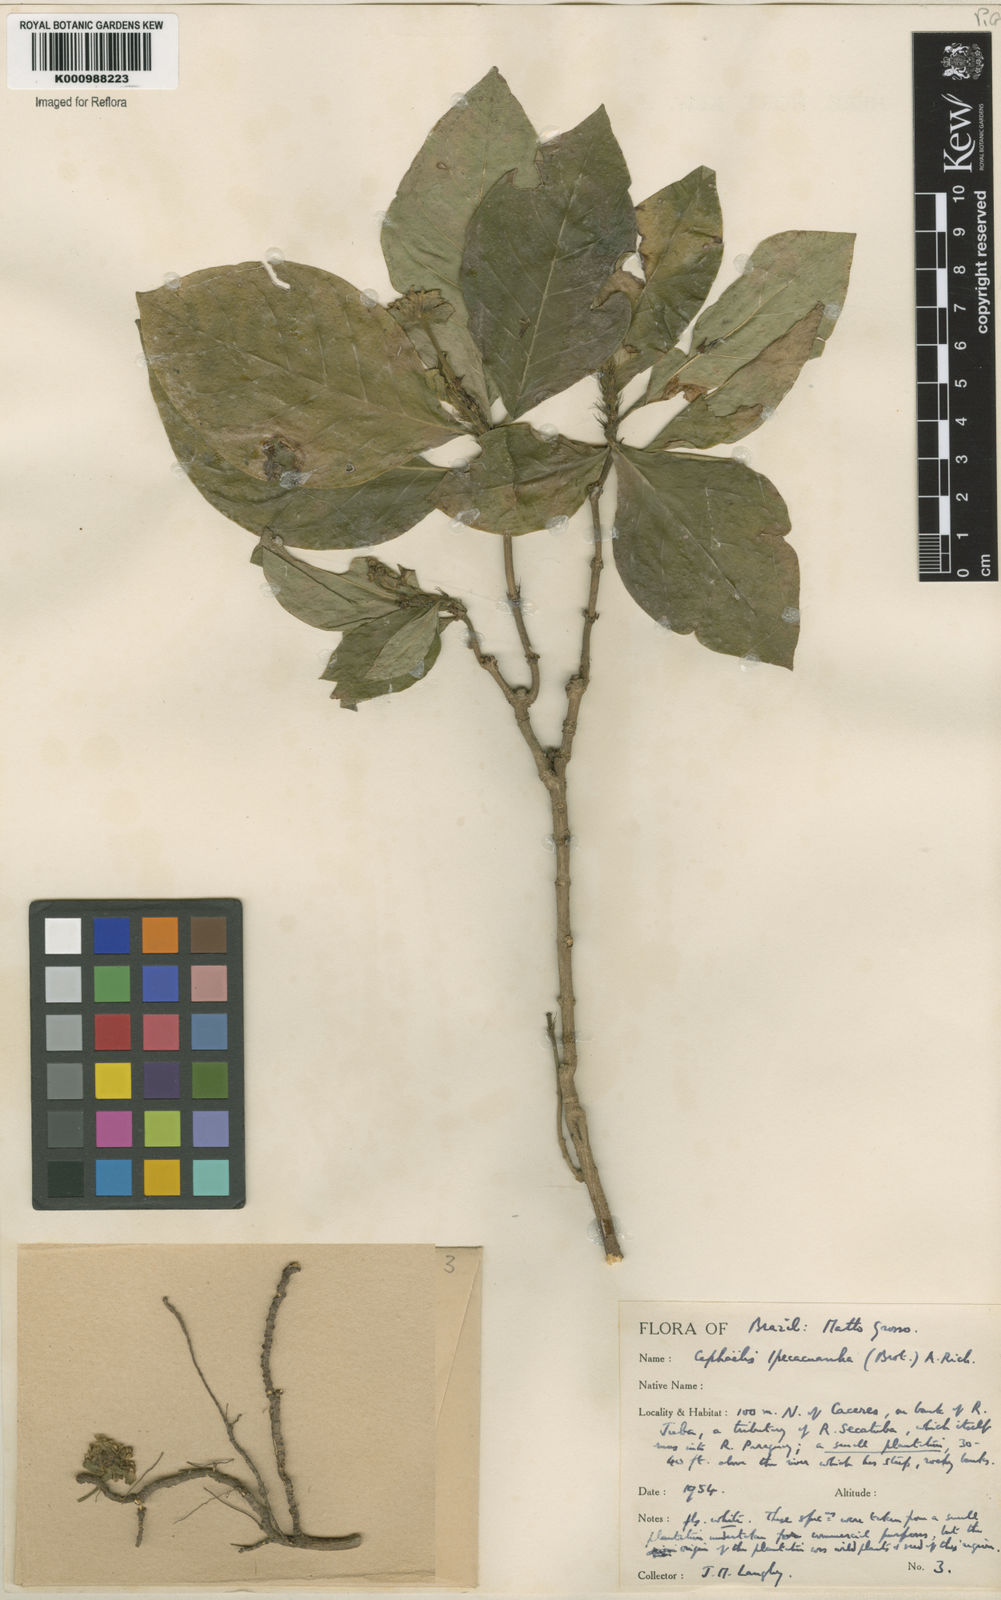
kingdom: Plantae
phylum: Tracheophyta
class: Magnoliopsida
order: Gentianales
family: Rubiaceae
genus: Carapichea
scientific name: Carapichea ipecacuanha
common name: Ipecac
